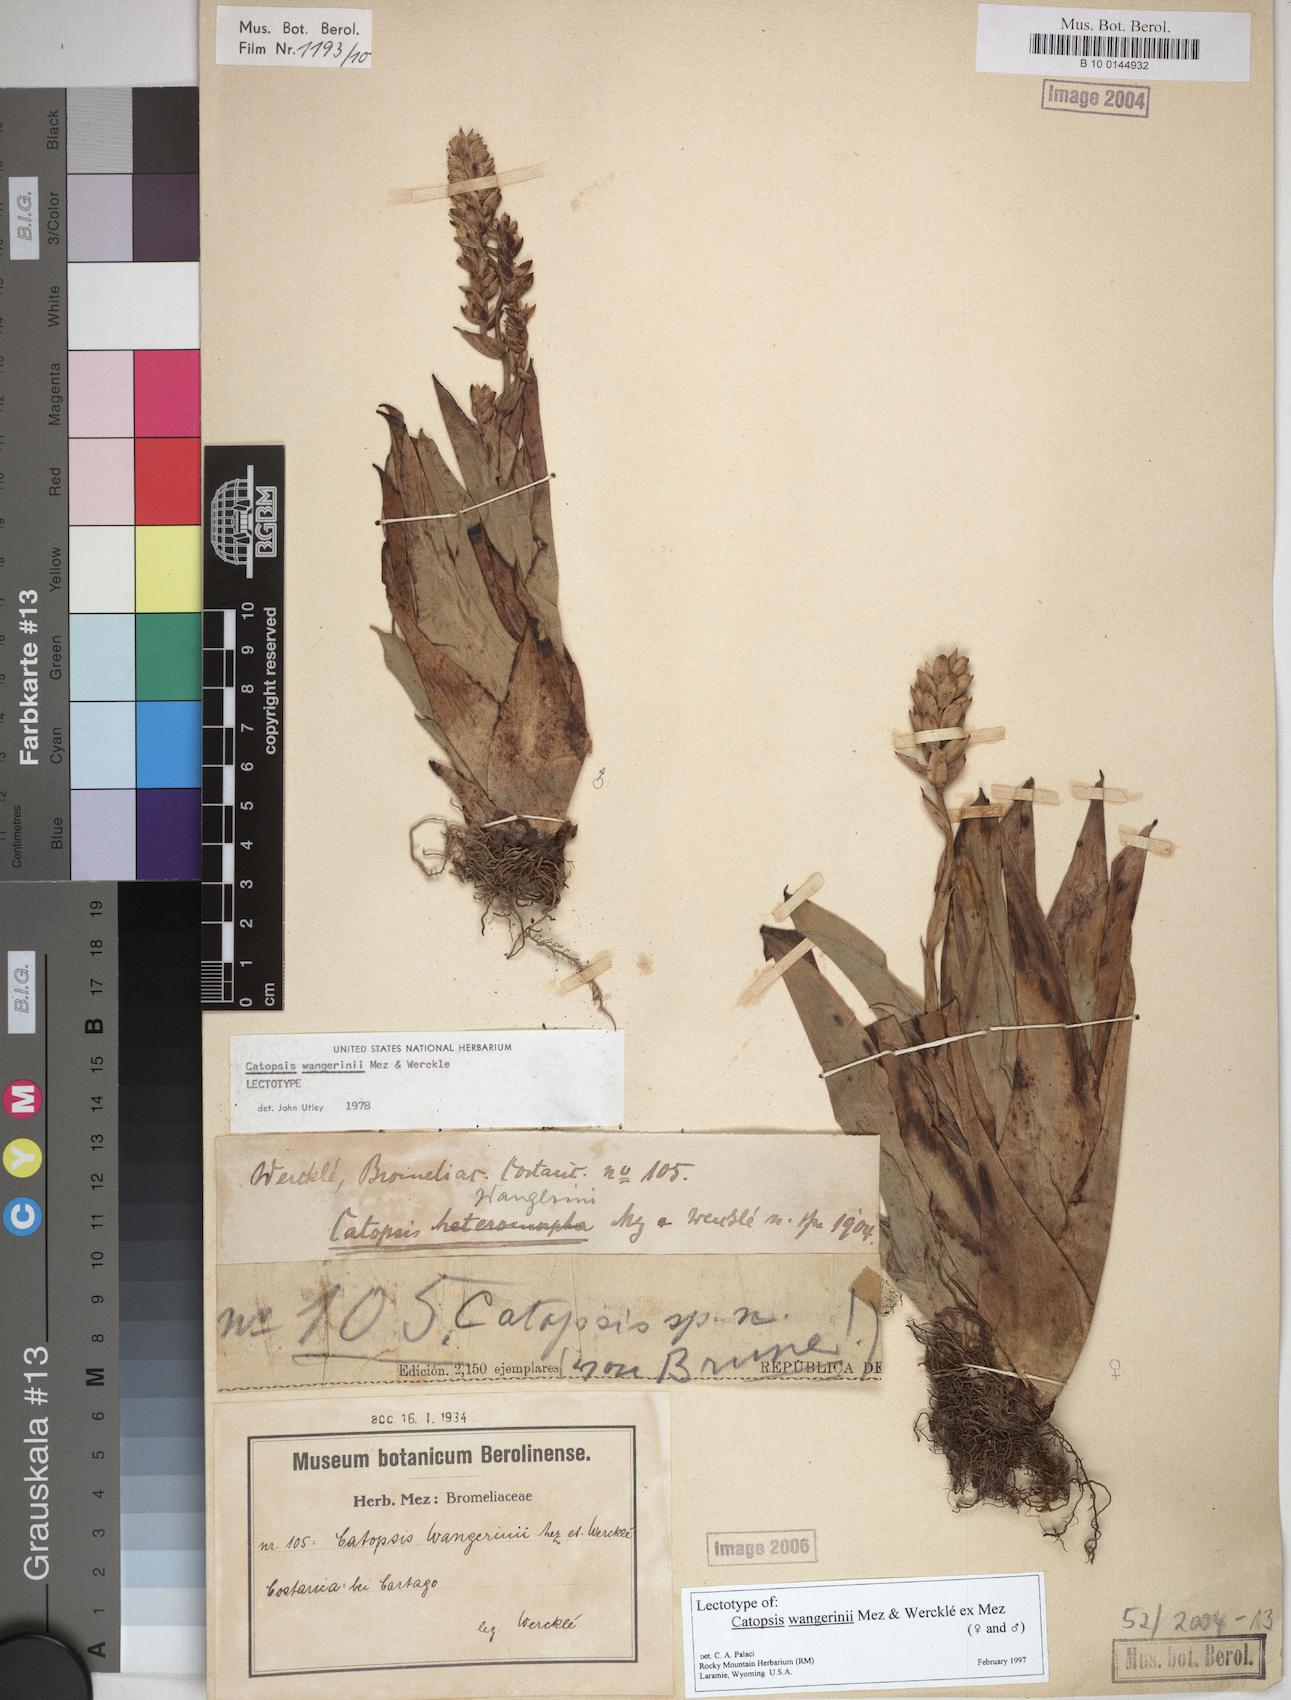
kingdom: Plantae
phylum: Tracheophyta
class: Liliopsida
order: Poales
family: Bromeliaceae
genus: Catopsis
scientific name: Catopsis wangerinii
